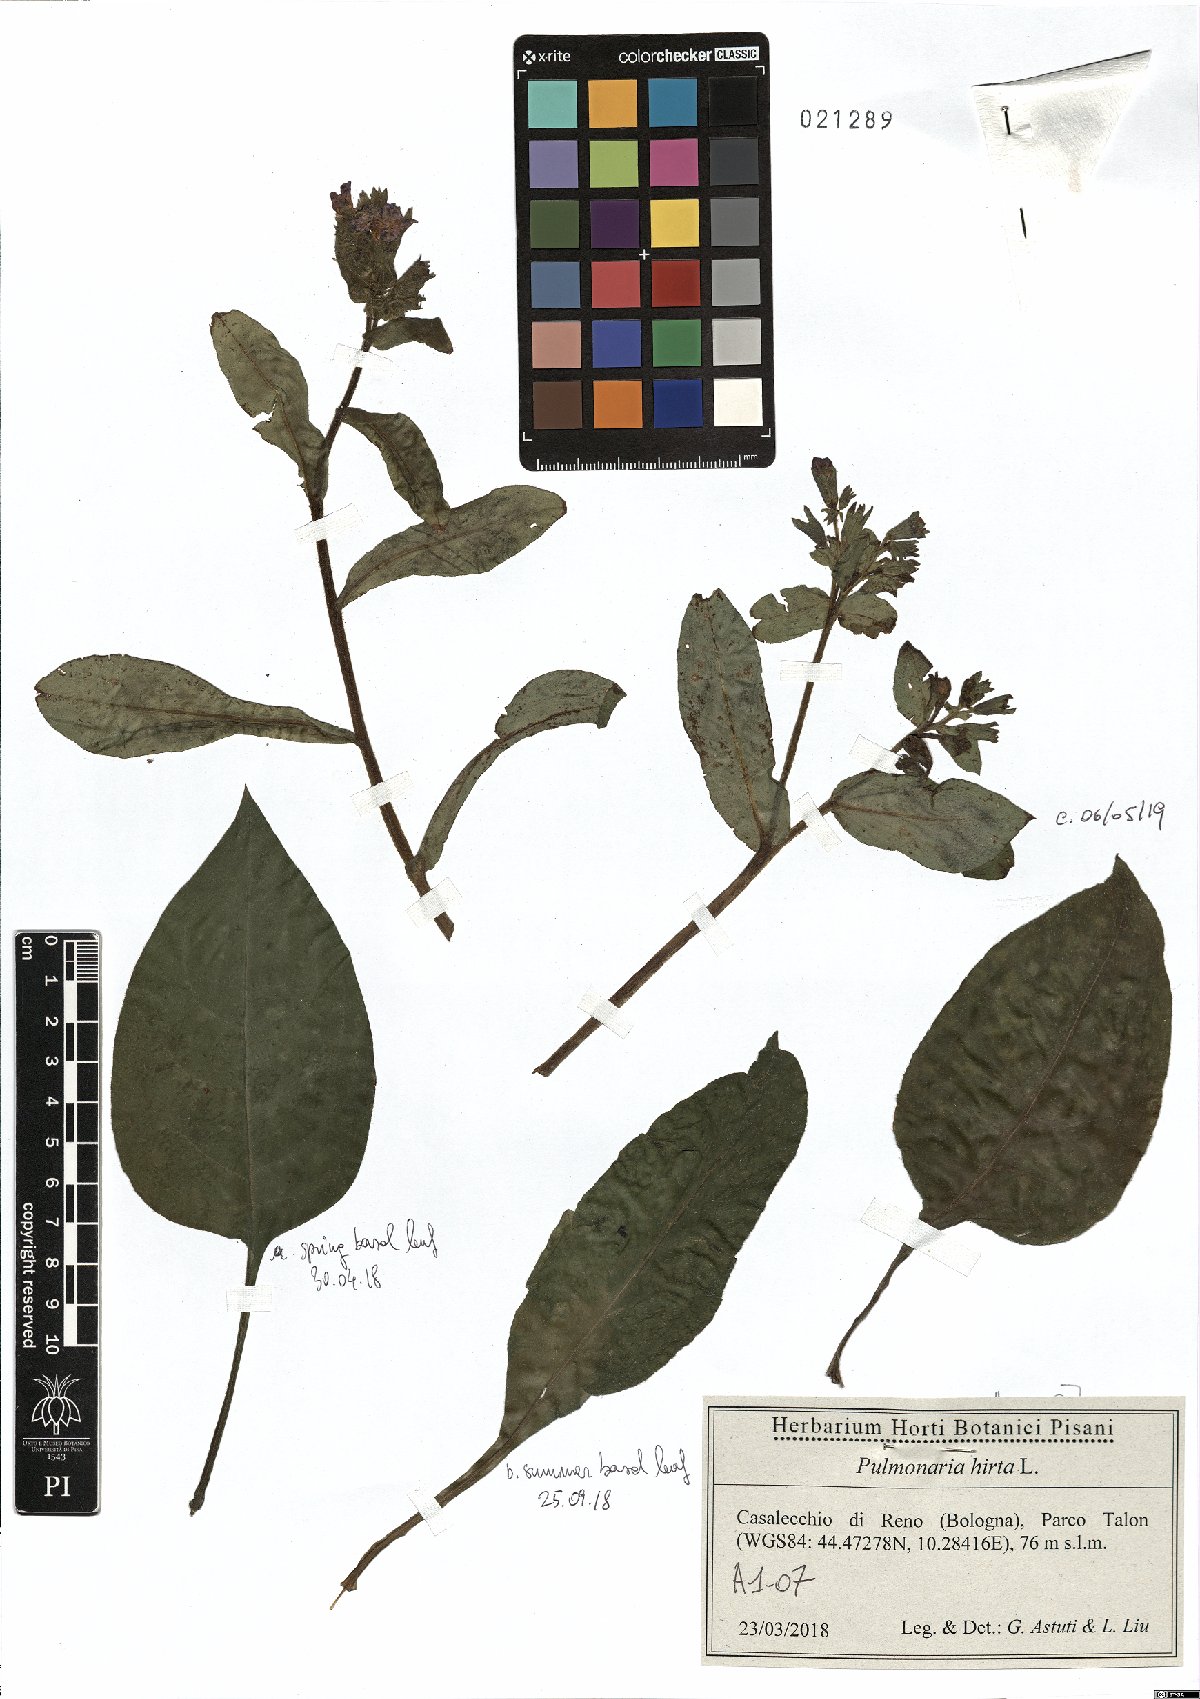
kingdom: Plantae
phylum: Tracheophyta
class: Magnoliopsida
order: Boraginales
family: Boraginaceae
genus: Pulmonaria
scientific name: Pulmonaria hirta
